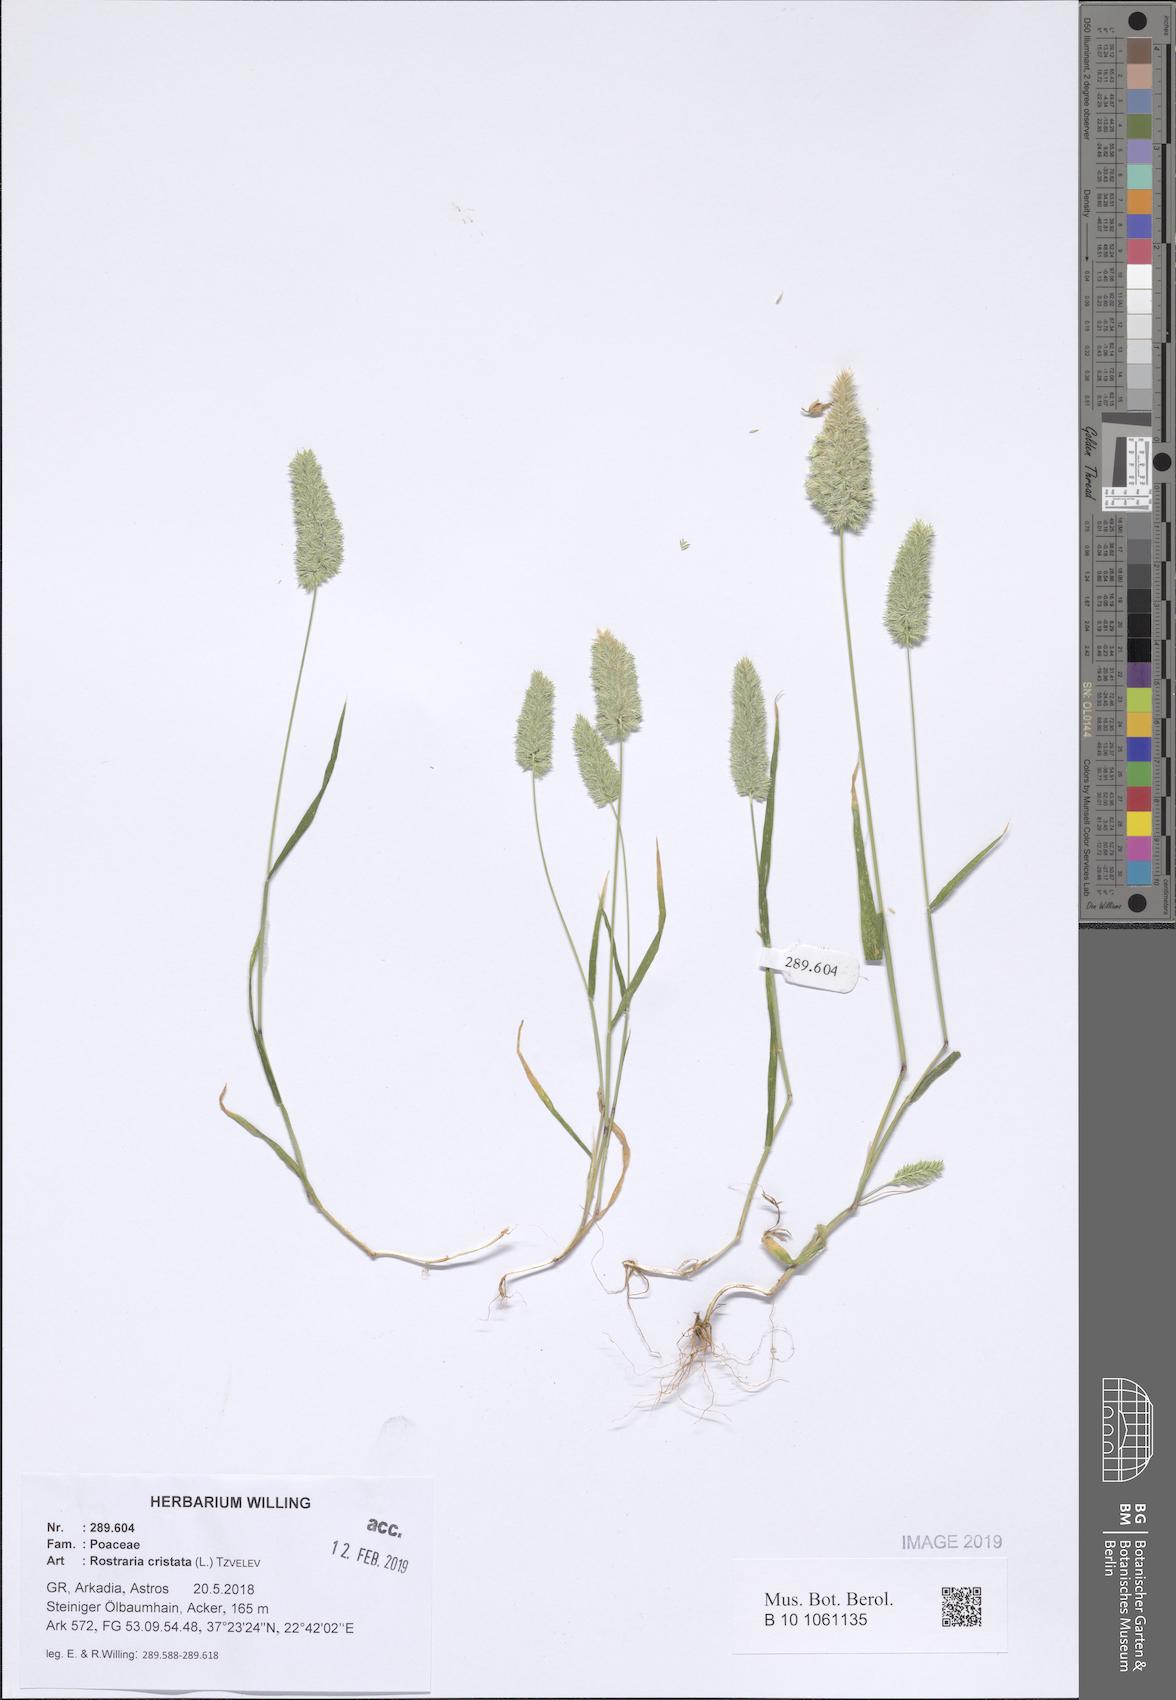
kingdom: Plantae
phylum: Tracheophyta
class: Liliopsida
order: Poales
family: Poaceae
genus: Rostraria
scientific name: Rostraria cristata
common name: Mediterranean hair-grass
